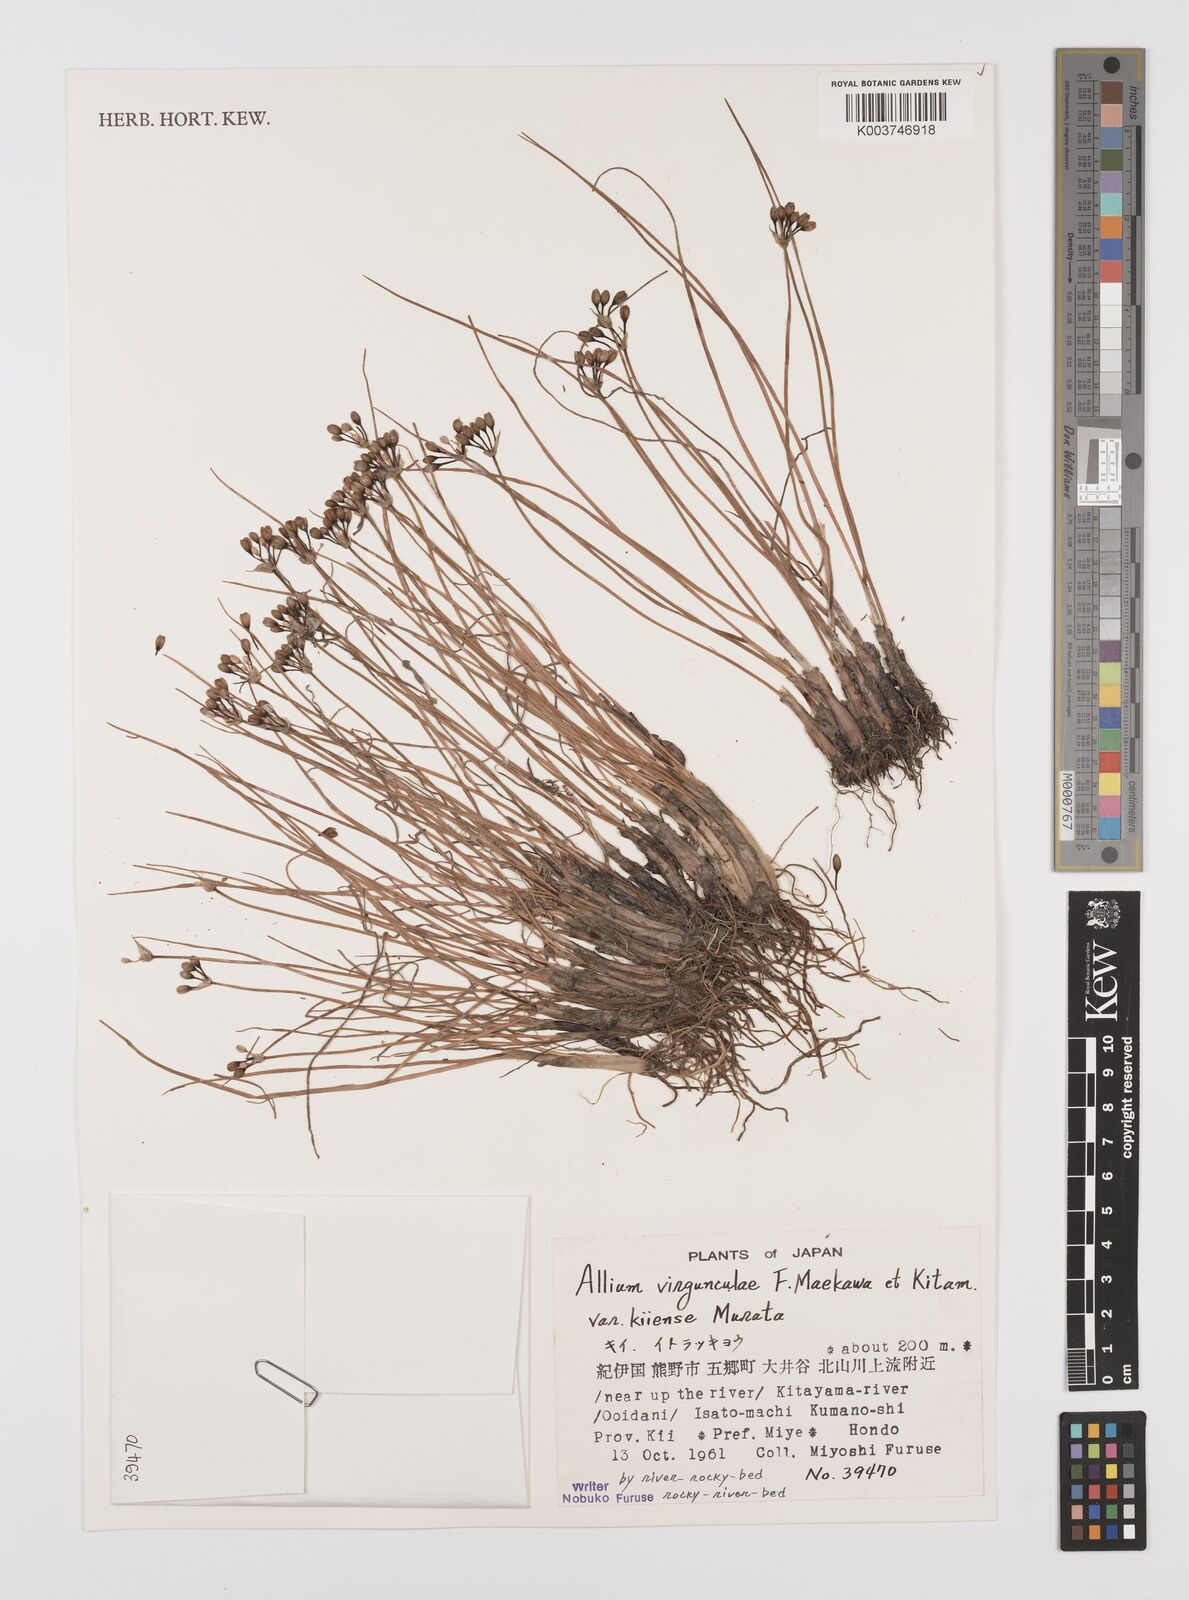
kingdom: Plantae
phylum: Tracheophyta
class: Liliopsida
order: Asparagales
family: Amaryllidaceae
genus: Allium
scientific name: Allium virgunculae
